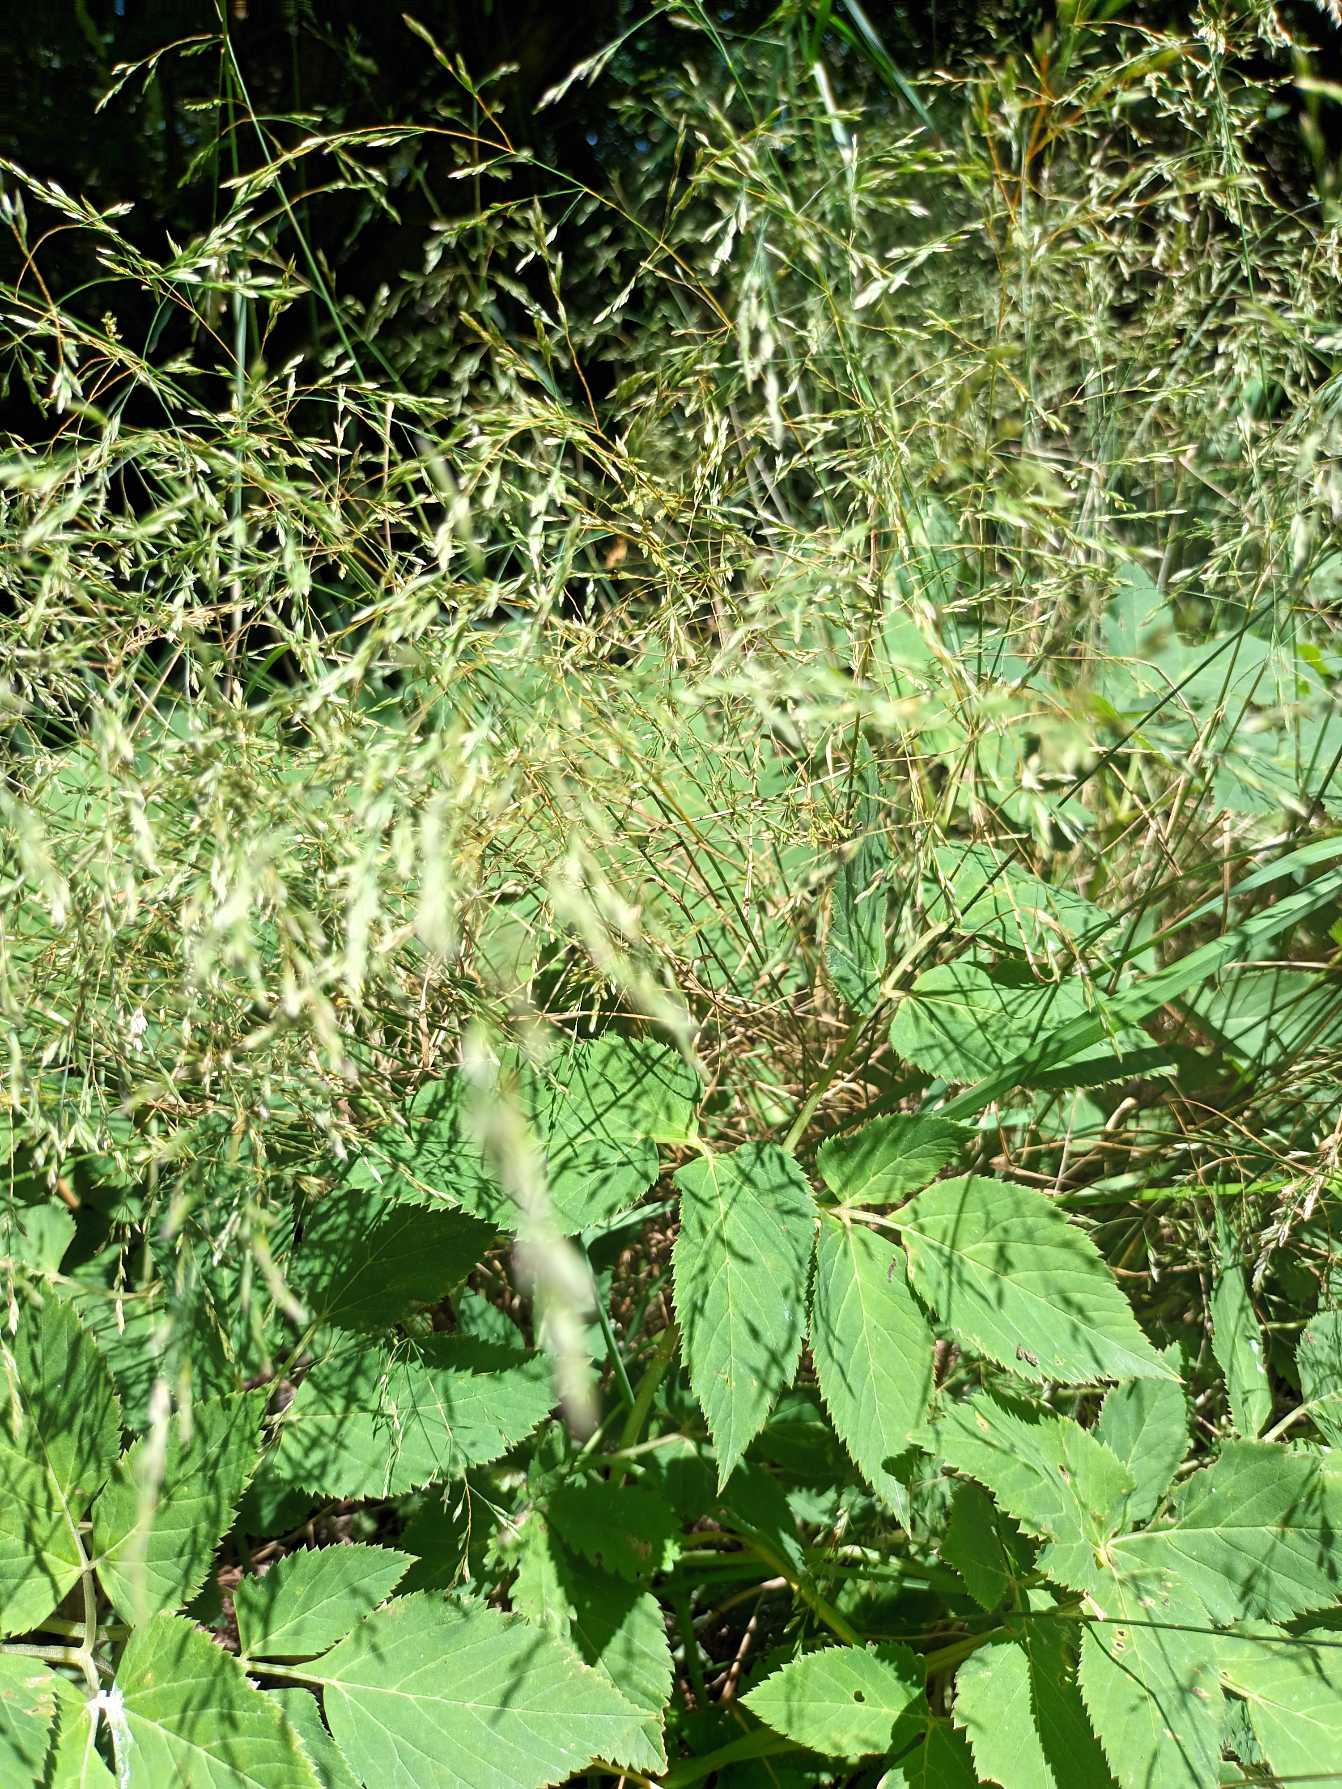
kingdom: Plantae
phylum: Tracheophyta
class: Liliopsida
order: Poales
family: Poaceae
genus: Poa
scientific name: Poa palustris
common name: Stortoppet rapgræs
